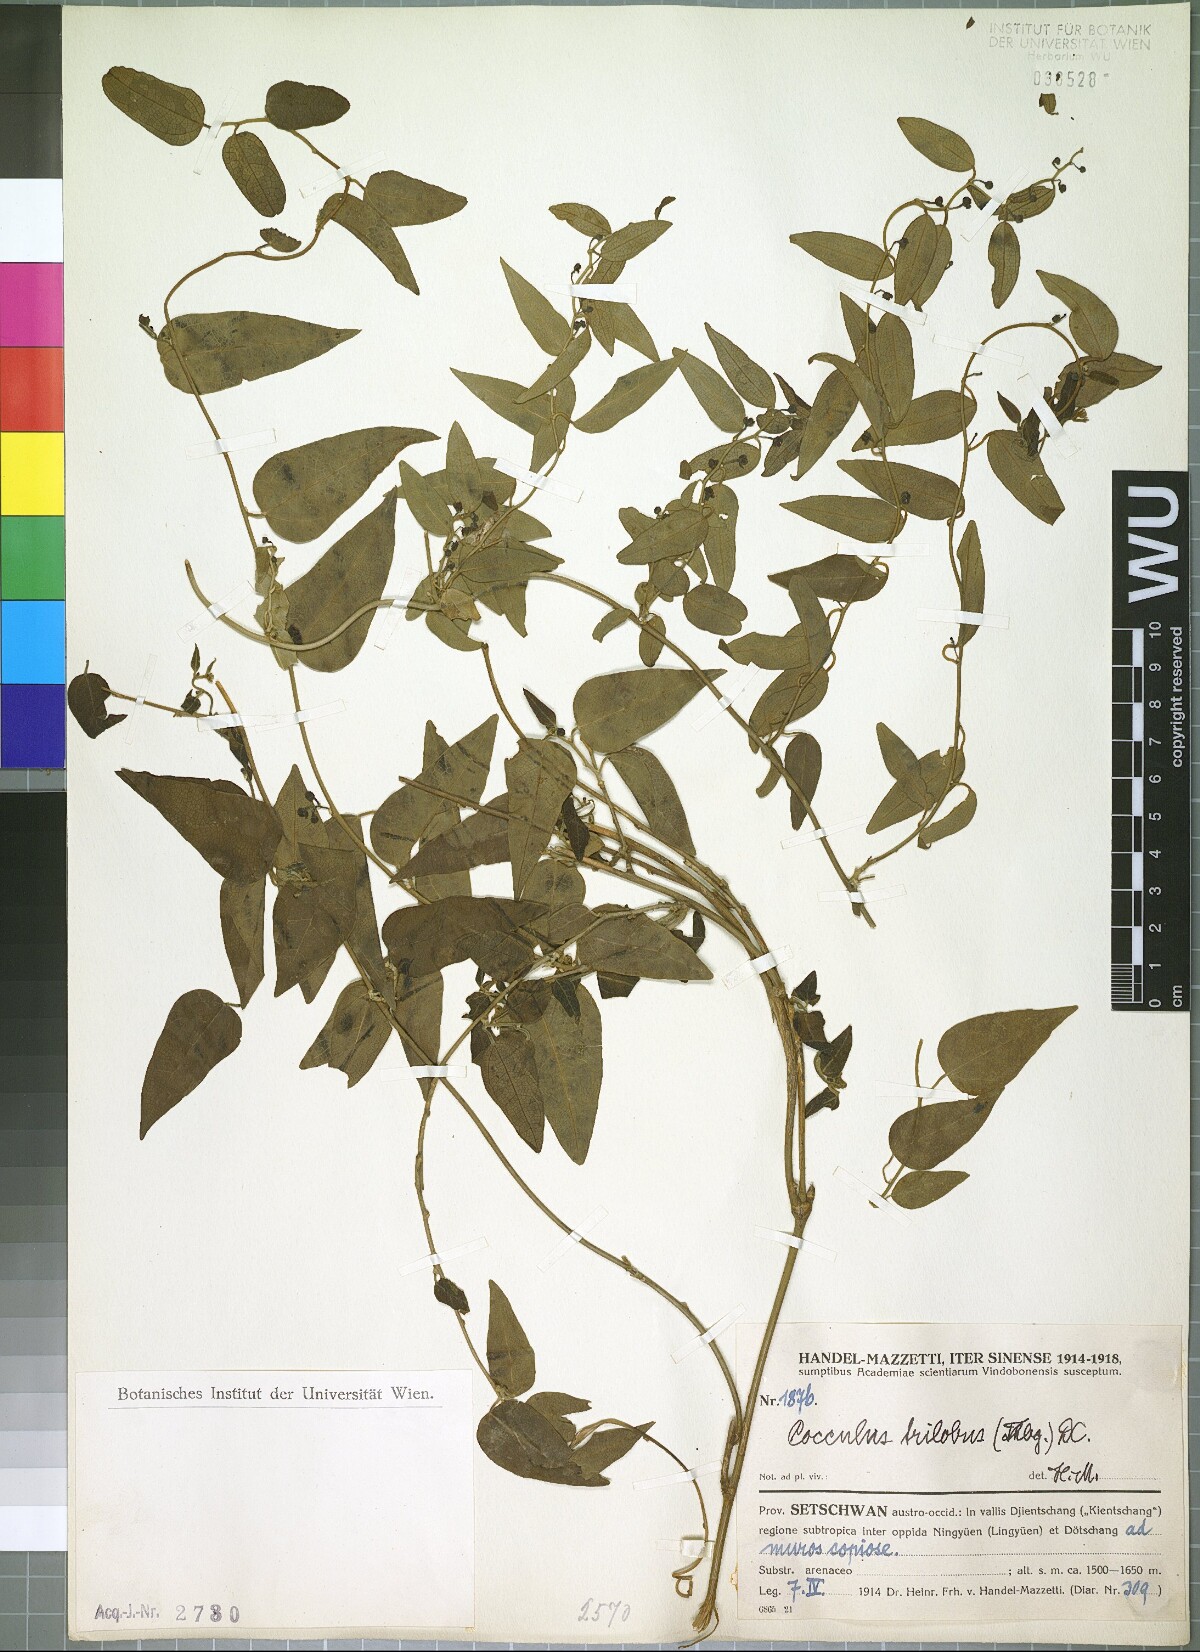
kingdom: Plantae
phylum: Tracheophyta
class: Magnoliopsida
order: Ranunculales
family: Menispermaceae
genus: Cocculus
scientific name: Cocculus orbiculatus
